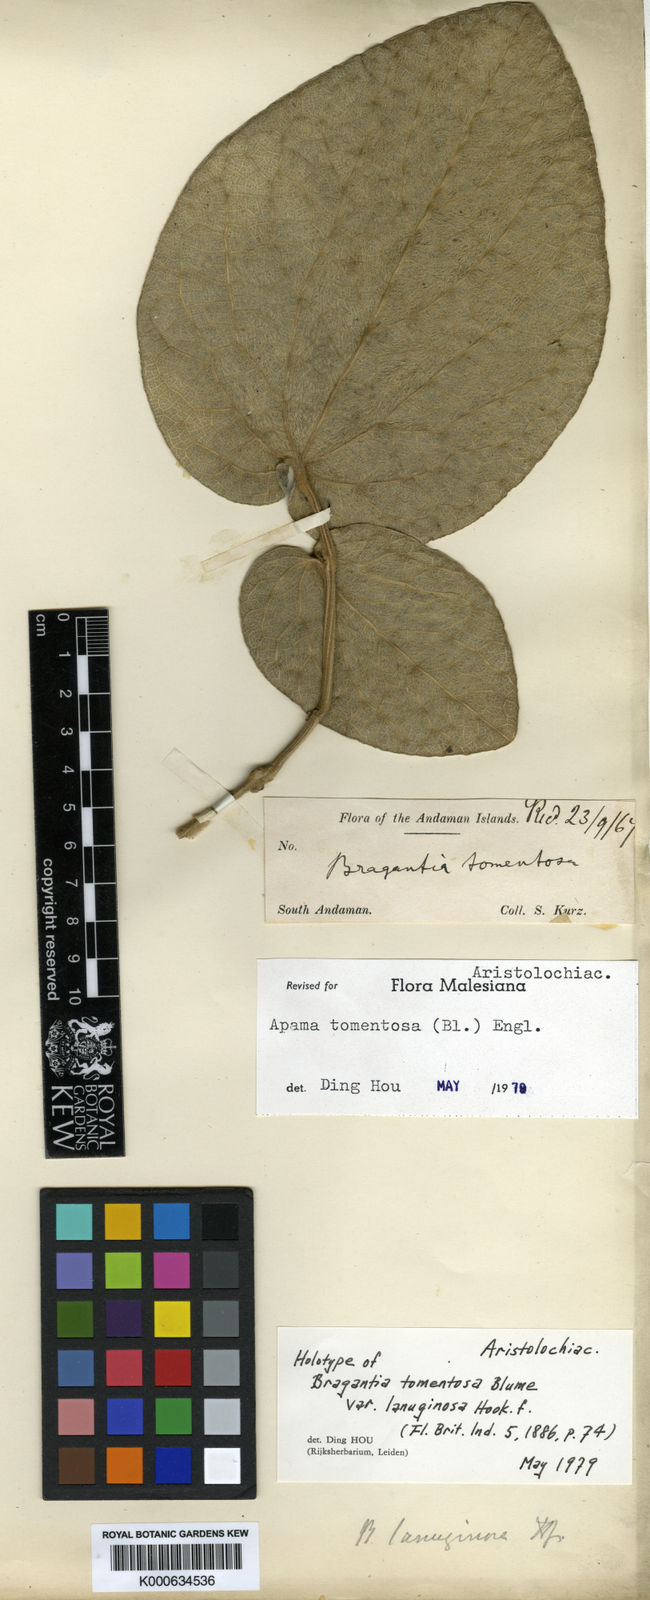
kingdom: Plantae
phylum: Tracheophyta
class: Magnoliopsida
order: Piperales
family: Aristolochiaceae
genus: Thottea
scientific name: Thottea tomentosa
